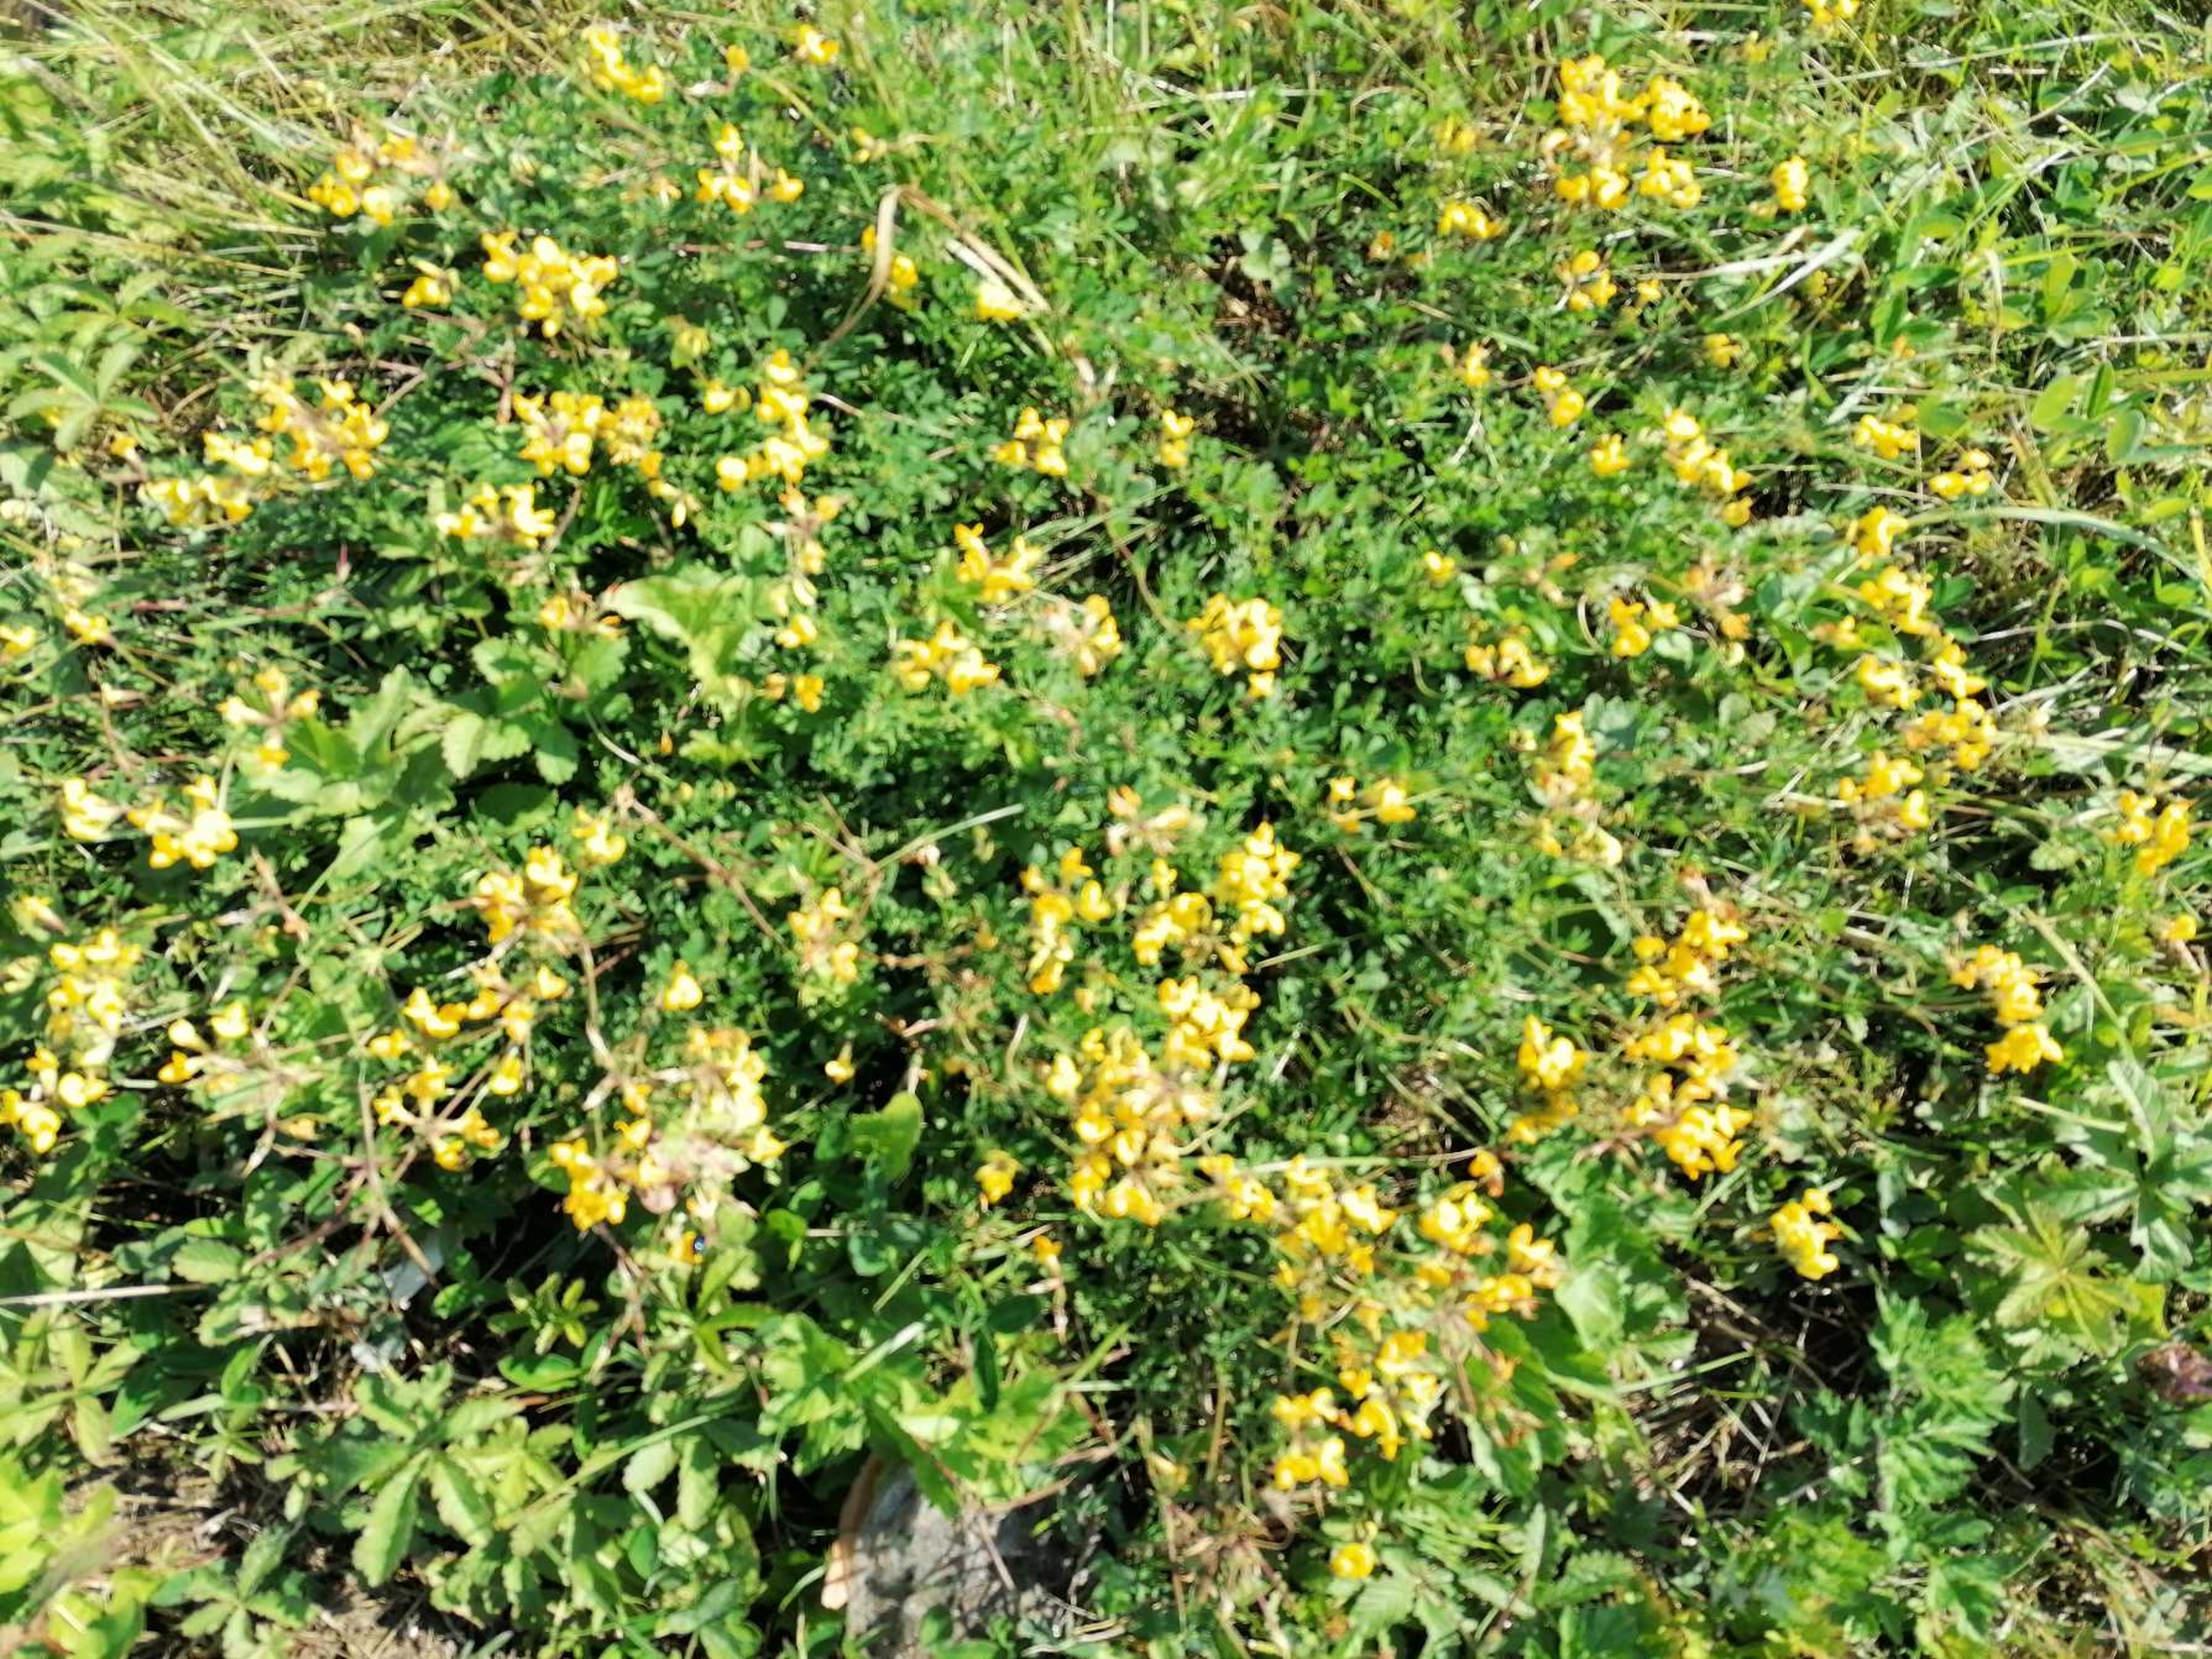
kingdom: Plantae
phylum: Tracheophyta
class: Magnoliopsida
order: Fabales
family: Fabaceae
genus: Lotus
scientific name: Lotus corniculatus
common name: Almindelig kællingetand
